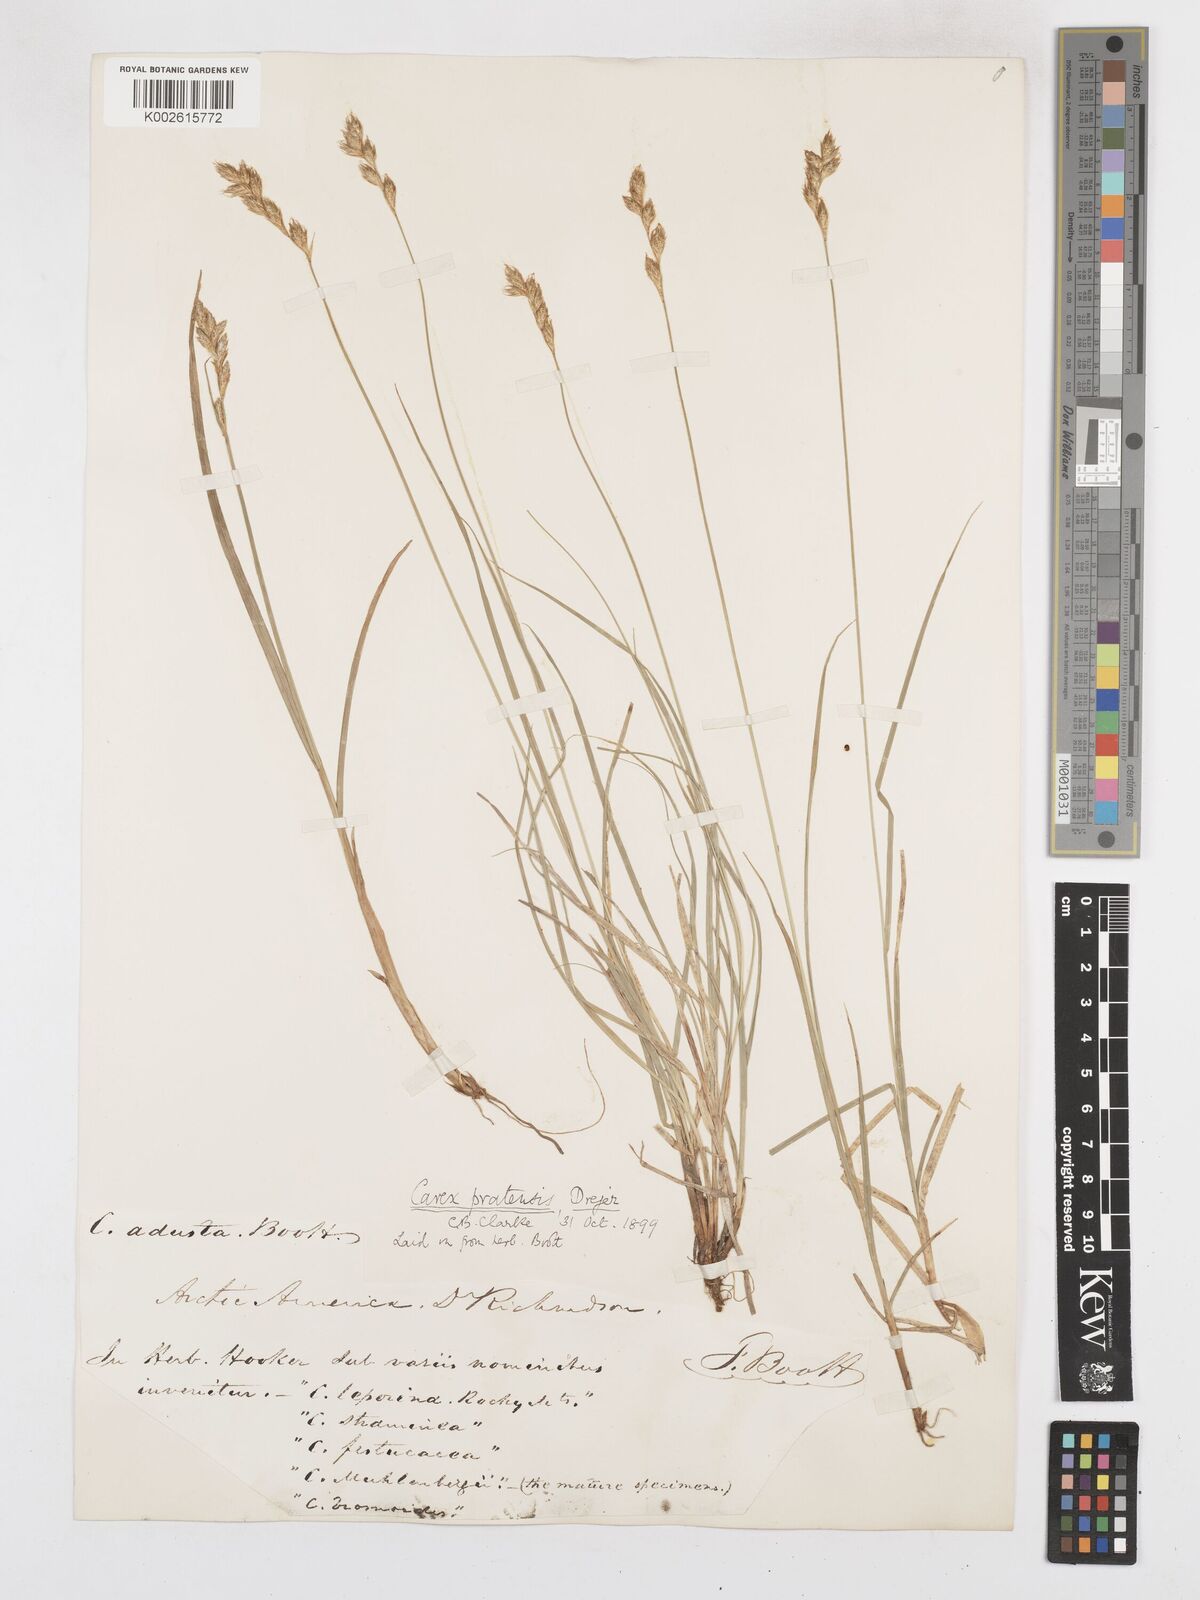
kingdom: Plantae
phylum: Tracheophyta
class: Liliopsida
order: Poales
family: Cyperaceae
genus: Carex
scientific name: Carex praticola
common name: Large-fruited oval sedge
